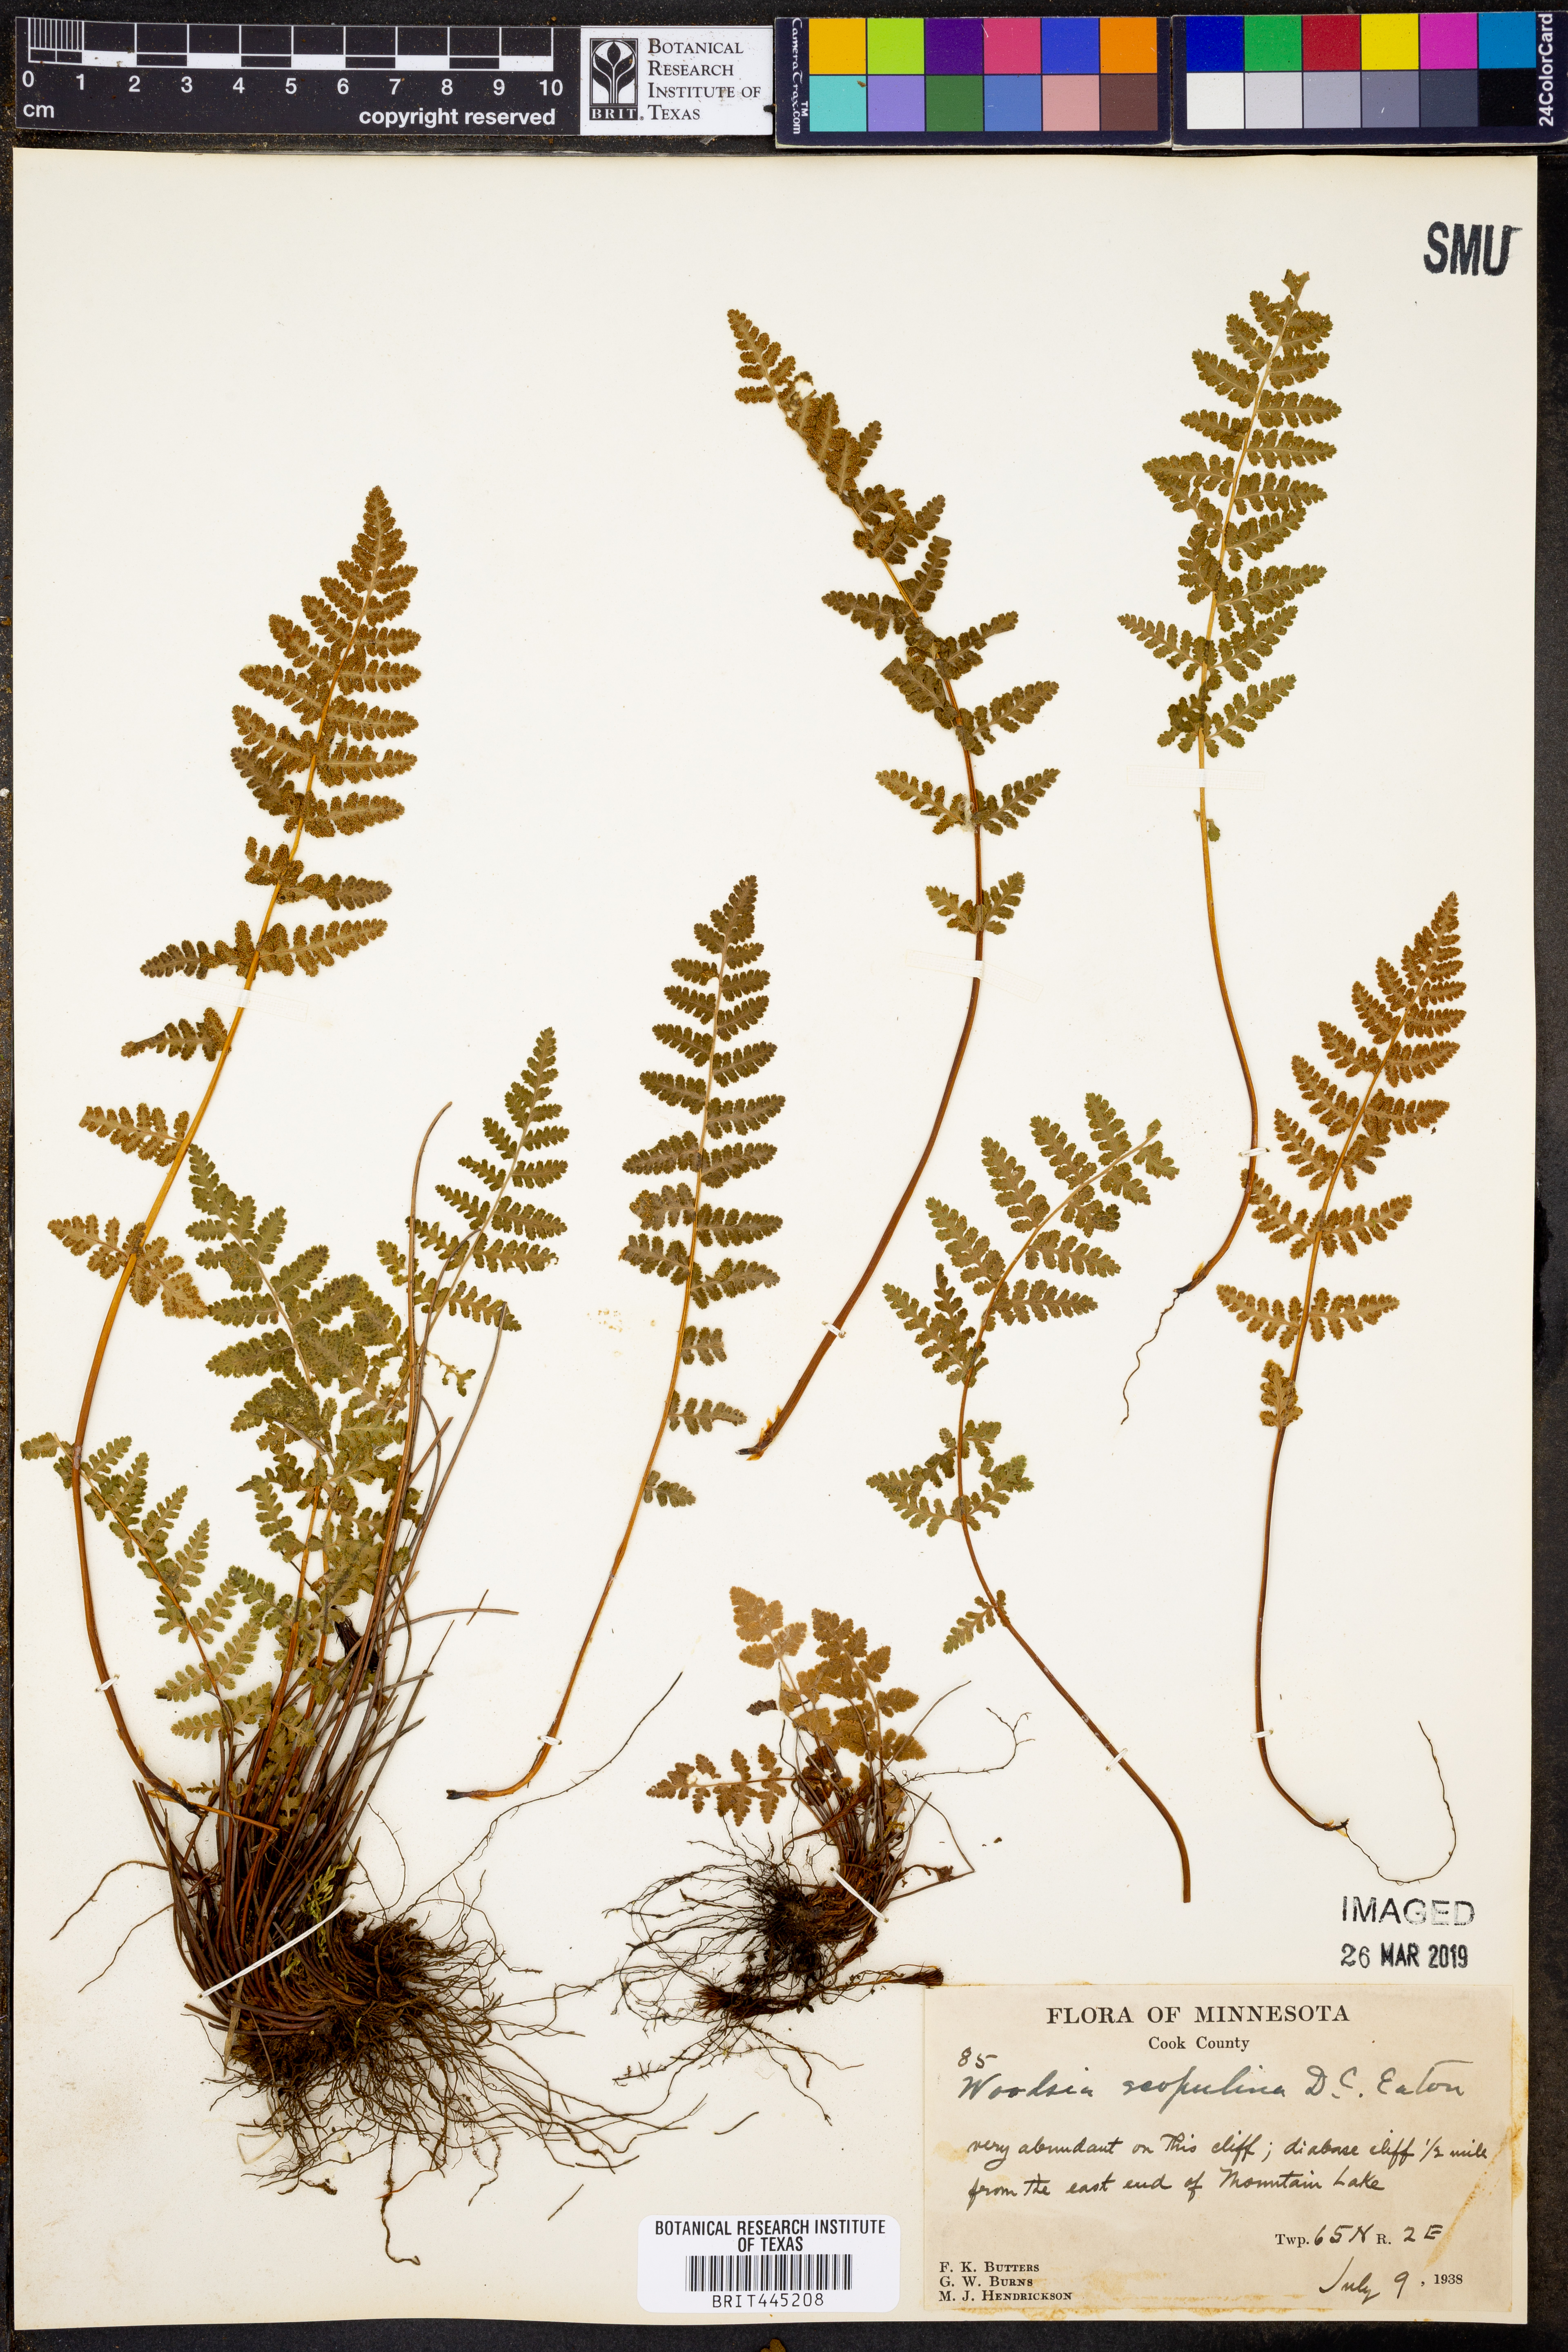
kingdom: Plantae
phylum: Tracheophyta
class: Polypodiopsida
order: Polypodiales
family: Woodsiaceae
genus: Physematium
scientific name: Physematium scopulinum
